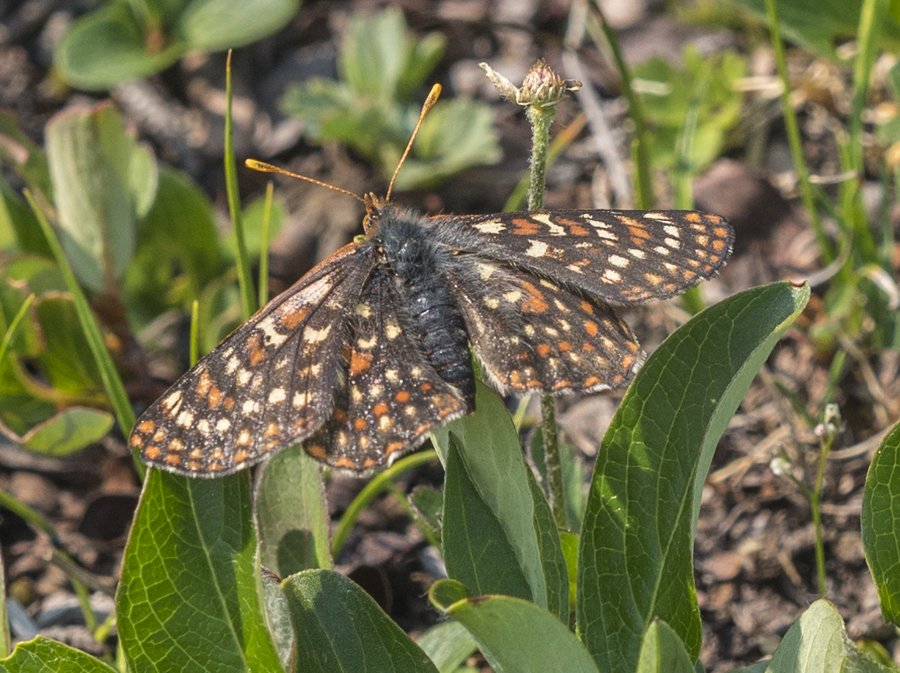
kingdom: Animalia
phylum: Arthropoda
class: Insecta
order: Lepidoptera
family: Nymphalidae
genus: Occidryas
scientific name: Occidryas anicia
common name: Anicia Checkerspot
